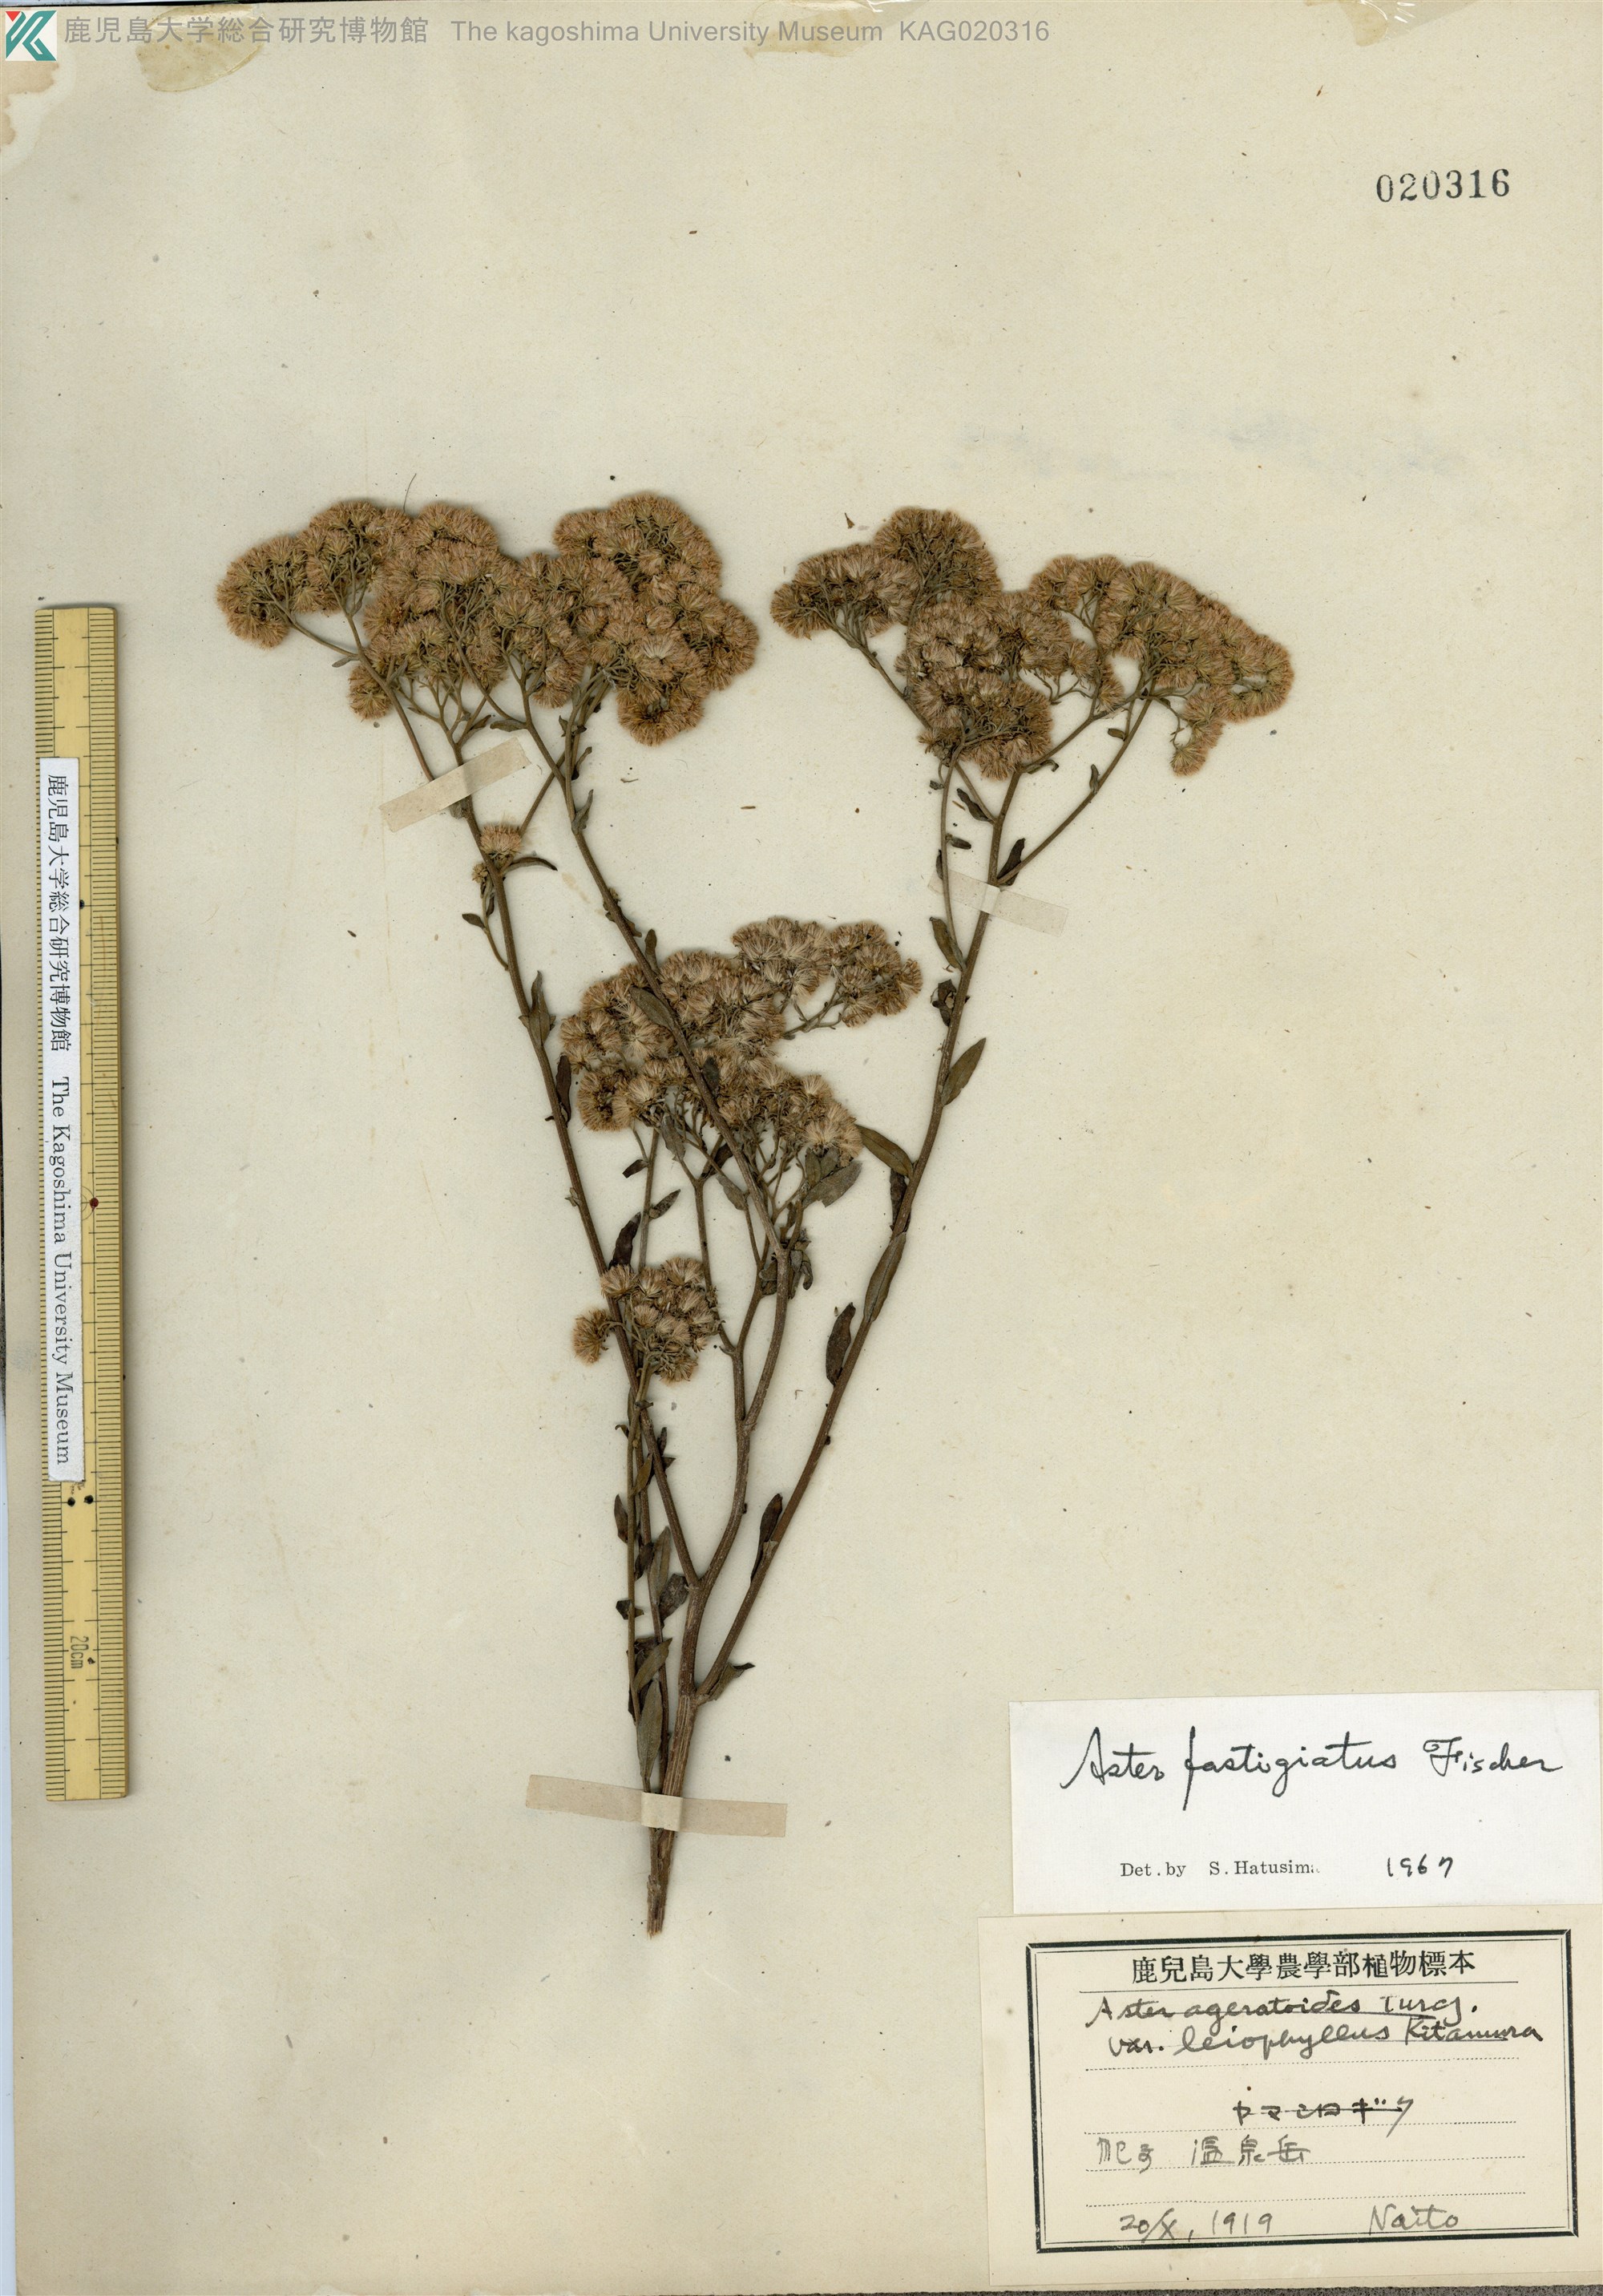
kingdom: Plantae
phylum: Tracheophyta
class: Magnoliopsida
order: Asterales
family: Asteraceae
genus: Turczaninovia
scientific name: Turczaninovia fastigiata
